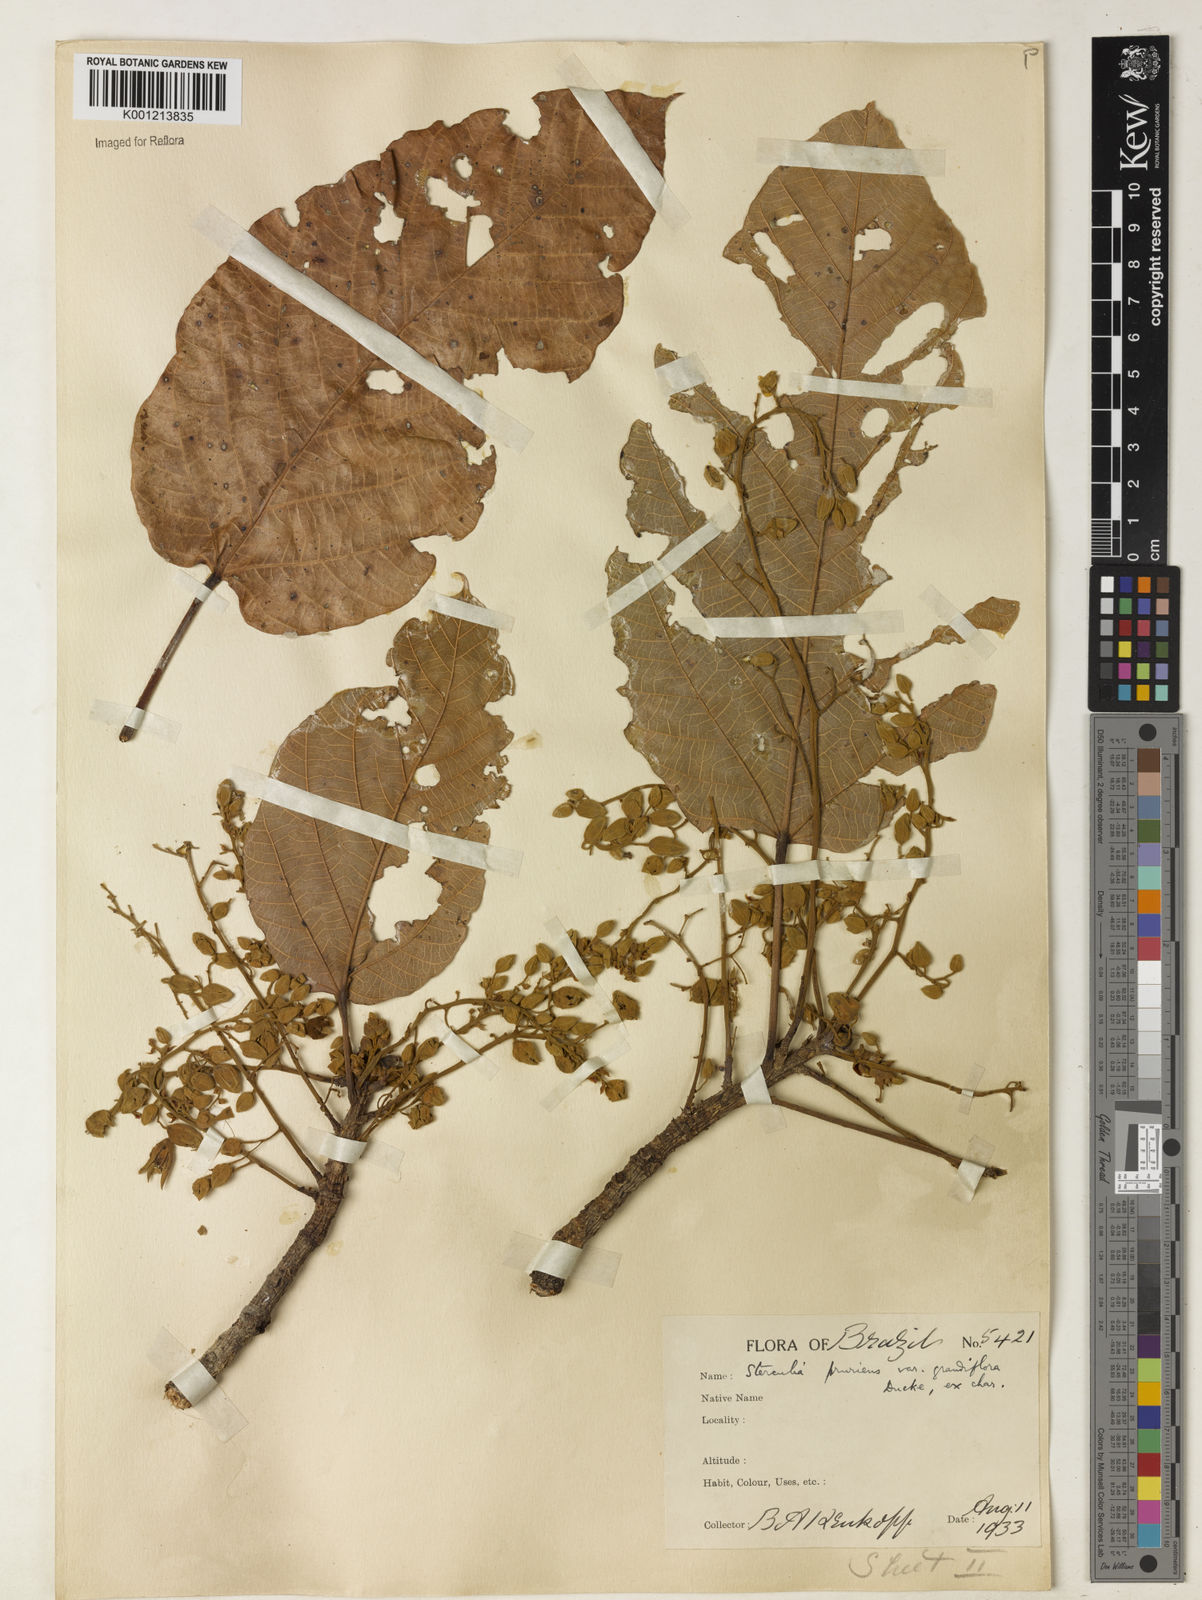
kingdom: Plantae
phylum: Tracheophyta
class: Magnoliopsida
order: Malvales
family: Malvaceae
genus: Sterculia
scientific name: Sterculia pruriens
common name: Grand mahot
